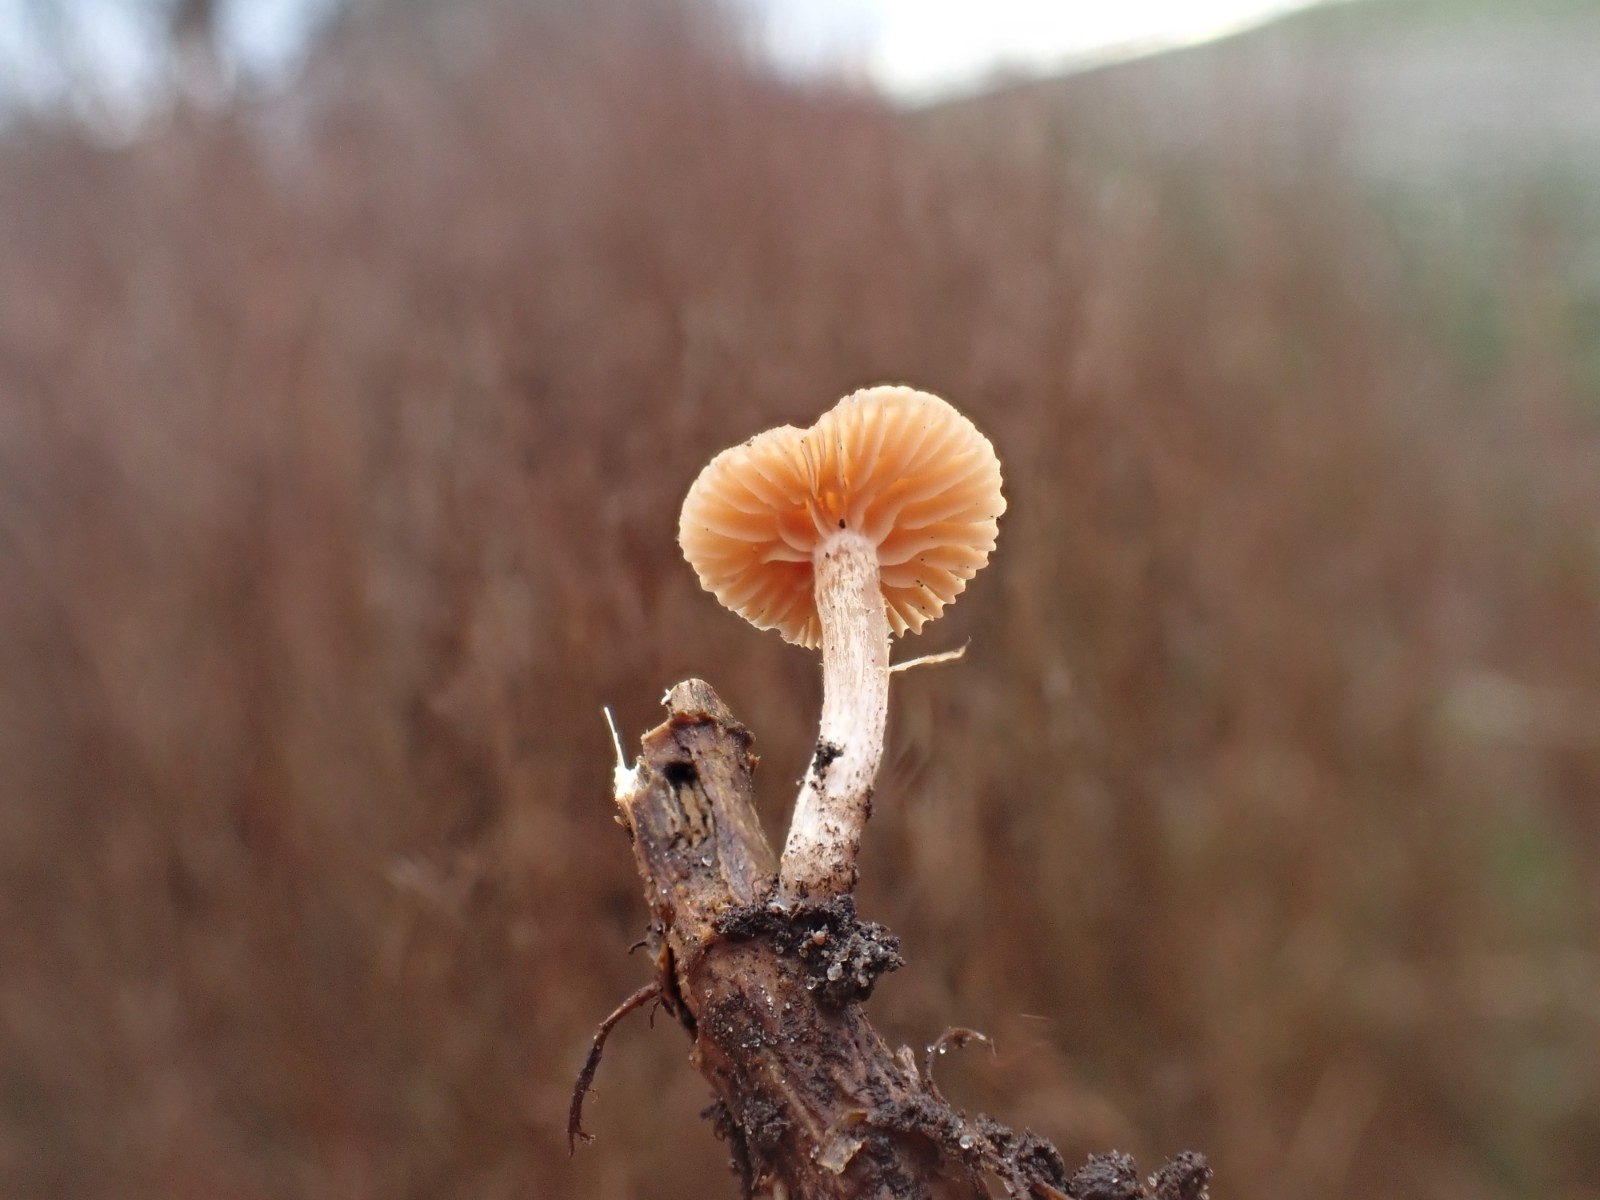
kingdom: Fungi
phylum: Basidiomycota
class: Agaricomycetes
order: Agaricales
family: Tubariaceae
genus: Tubaria
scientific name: Tubaria furfuracea
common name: kliddet fnughat
